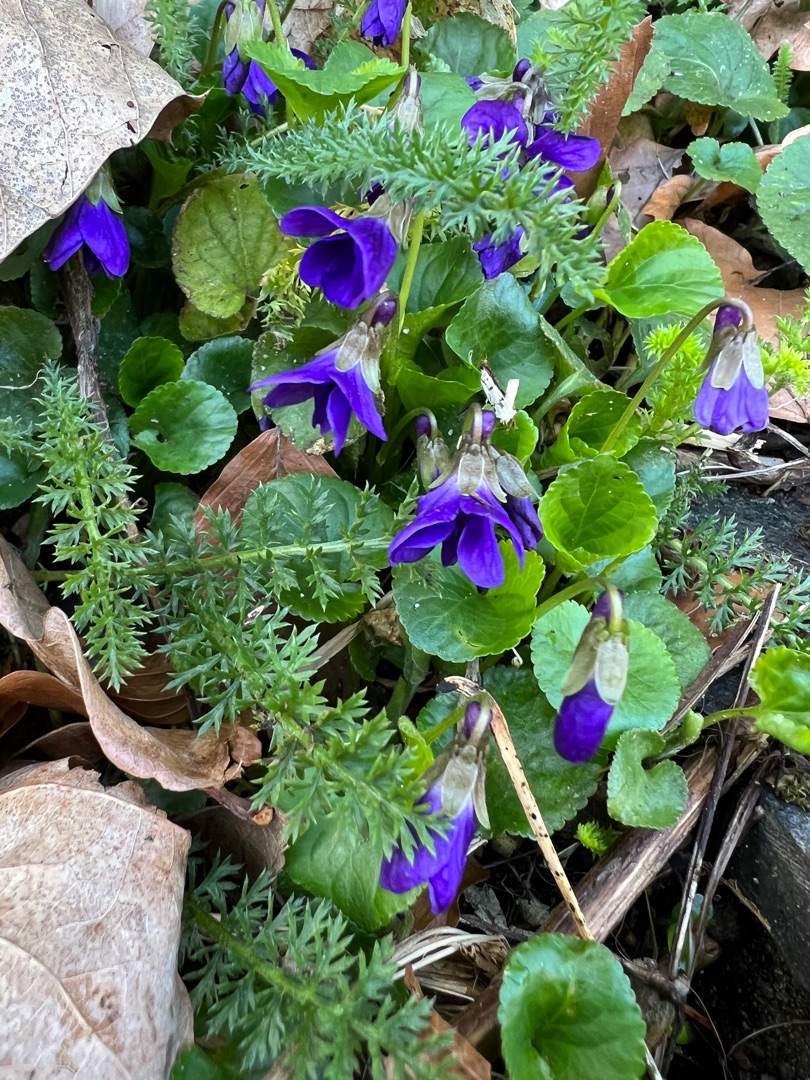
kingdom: Plantae
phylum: Tracheophyta
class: Magnoliopsida
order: Malpighiales
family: Violaceae
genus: Viola
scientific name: Viola odorata
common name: Marts-viol
